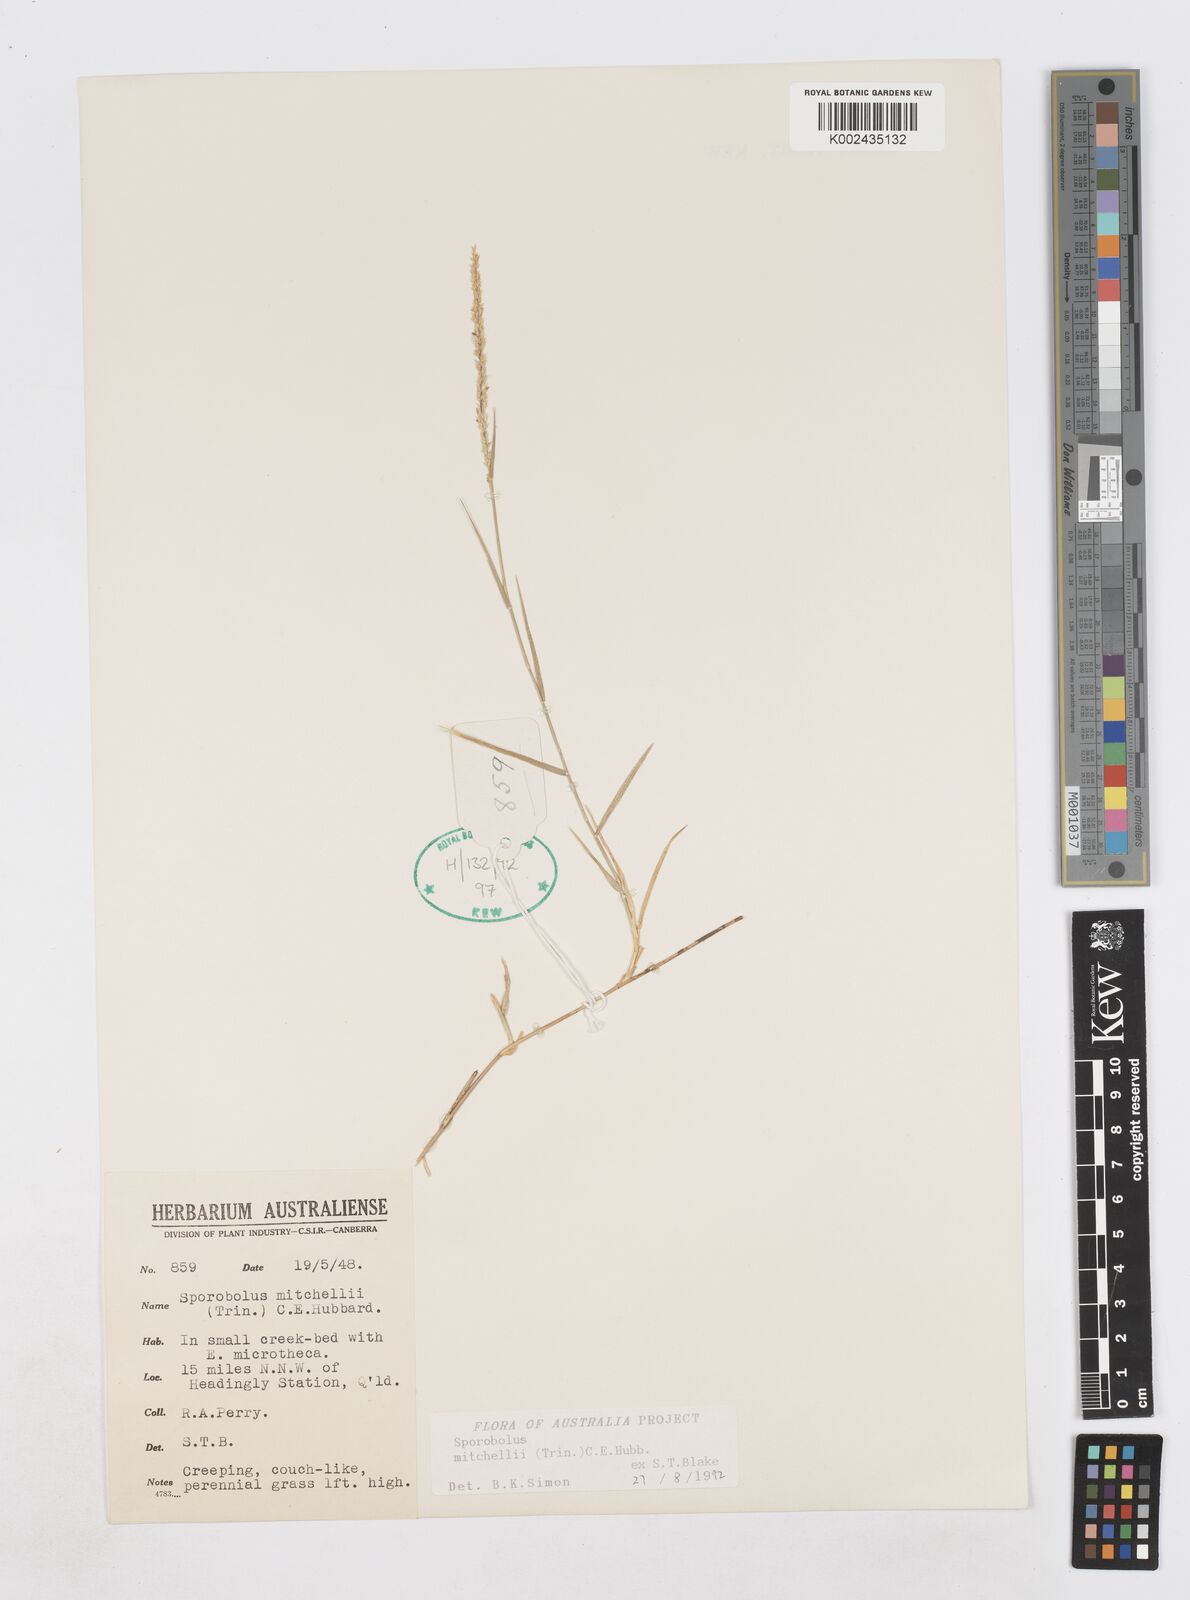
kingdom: Plantae
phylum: Tracheophyta
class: Liliopsida
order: Poales
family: Poaceae
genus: Sporobolus
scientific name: Sporobolus mitchellii
